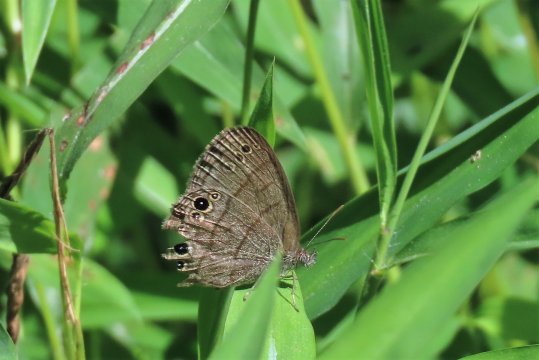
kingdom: Animalia
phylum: Arthropoda
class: Insecta
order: Lepidoptera
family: Nymphalidae
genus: Hermeuptychia
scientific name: Hermeuptychia hermes
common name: Carolina Satyr
